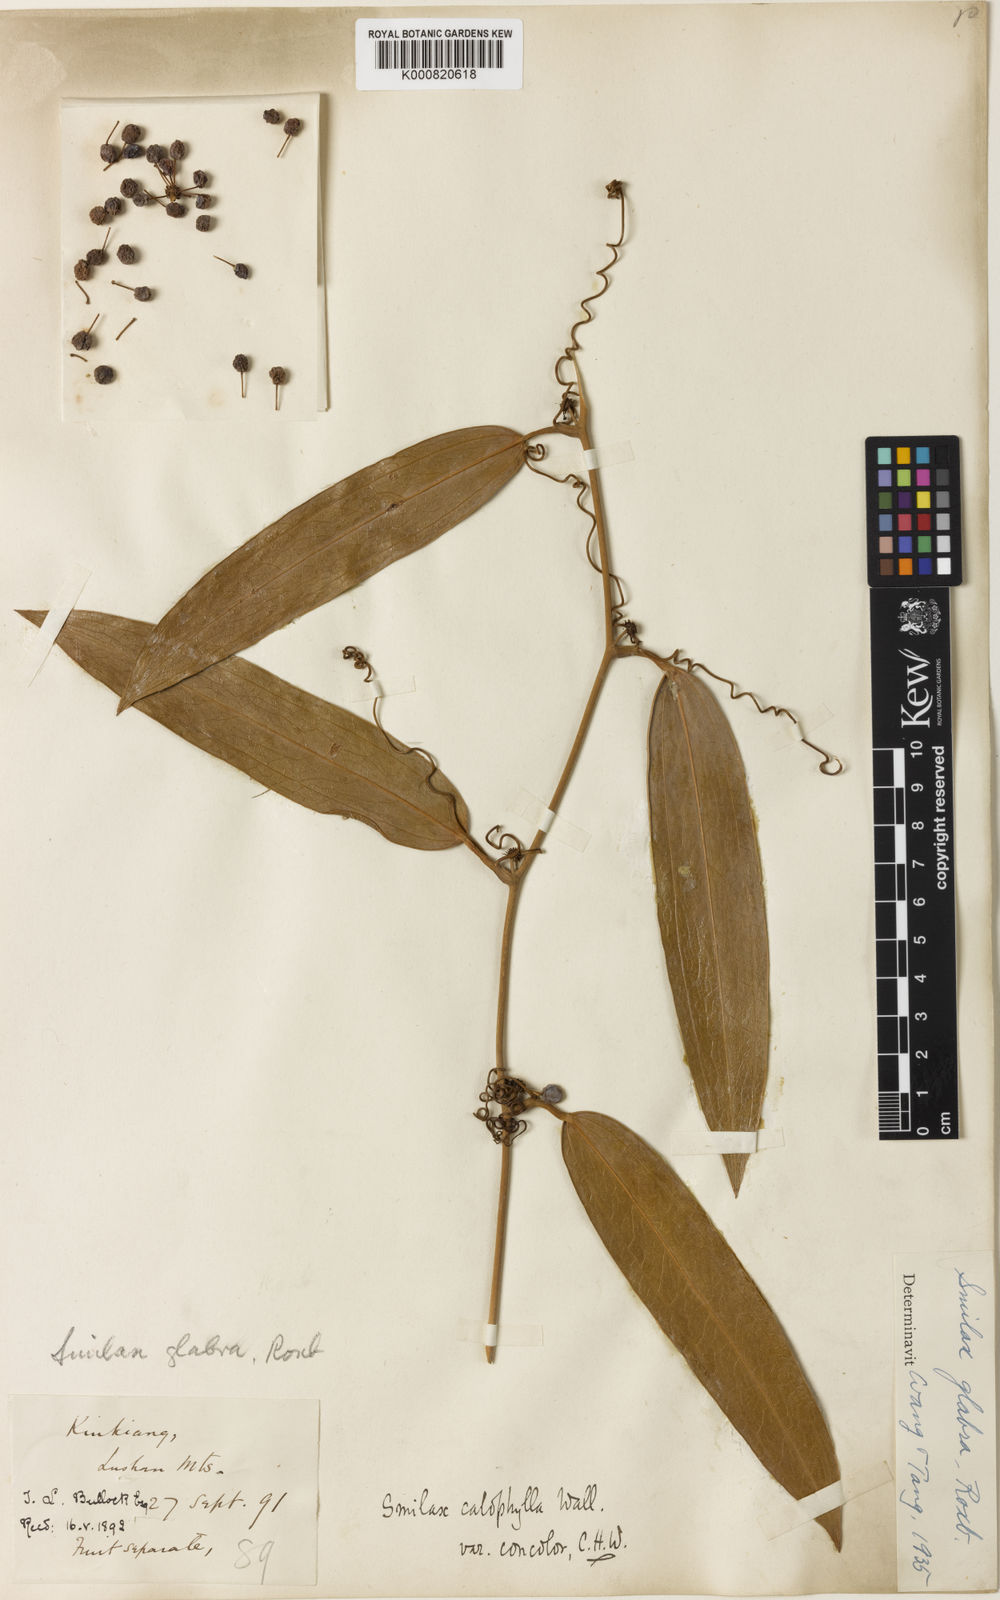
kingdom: Plantae
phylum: Tracheophyta
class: Liliopsida
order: Liliales
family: Smilacaceae
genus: Smilax
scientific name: Smilax glabra
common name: Chinese smilax
